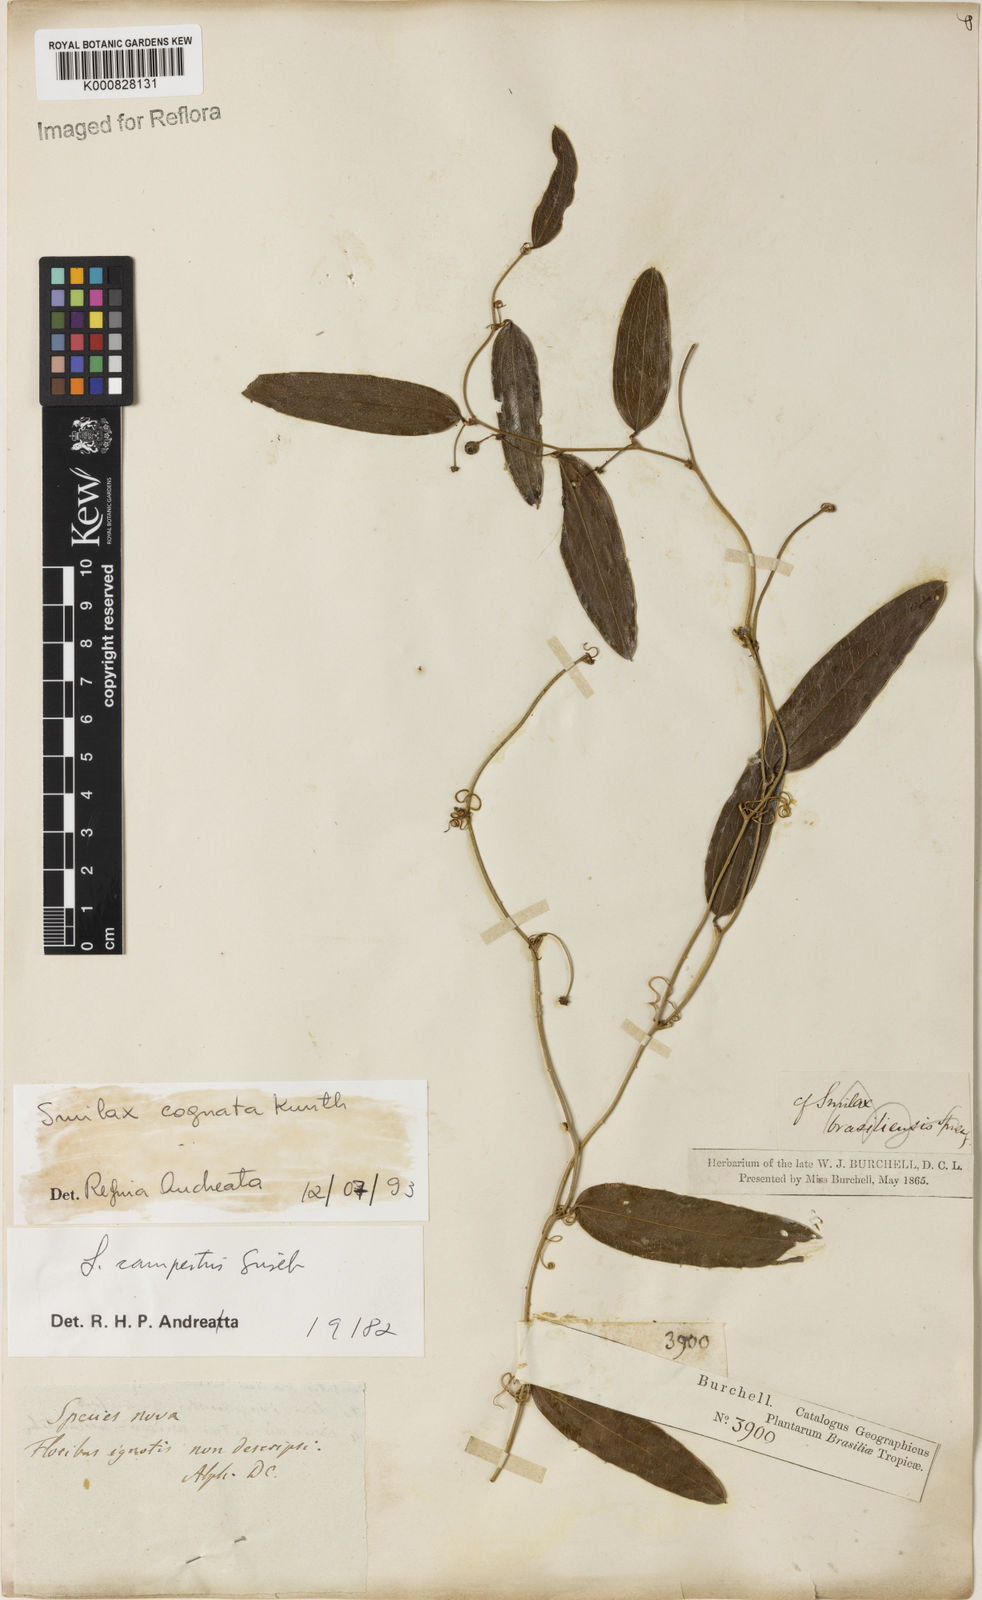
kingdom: Plantae
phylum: Tracheophyta
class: Liliopsida
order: Liliales
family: Smilacaceae
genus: Smilax
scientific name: Smilax cognata
